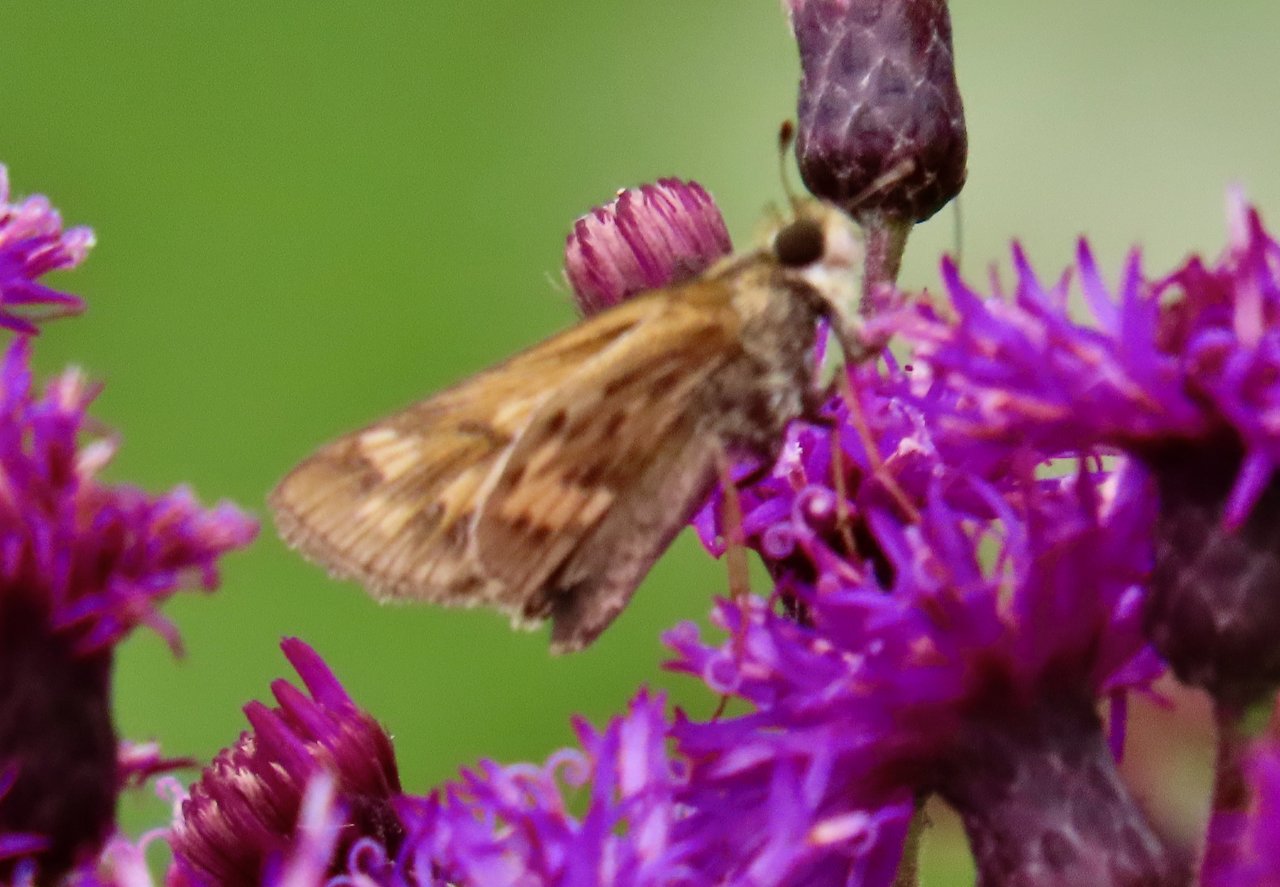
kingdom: Animalia
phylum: Arthropoda
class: Insecta
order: Lepidoptera
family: Hesperiidae
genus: Hylephila
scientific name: Hylephila phyleus
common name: Fiery Skipper
